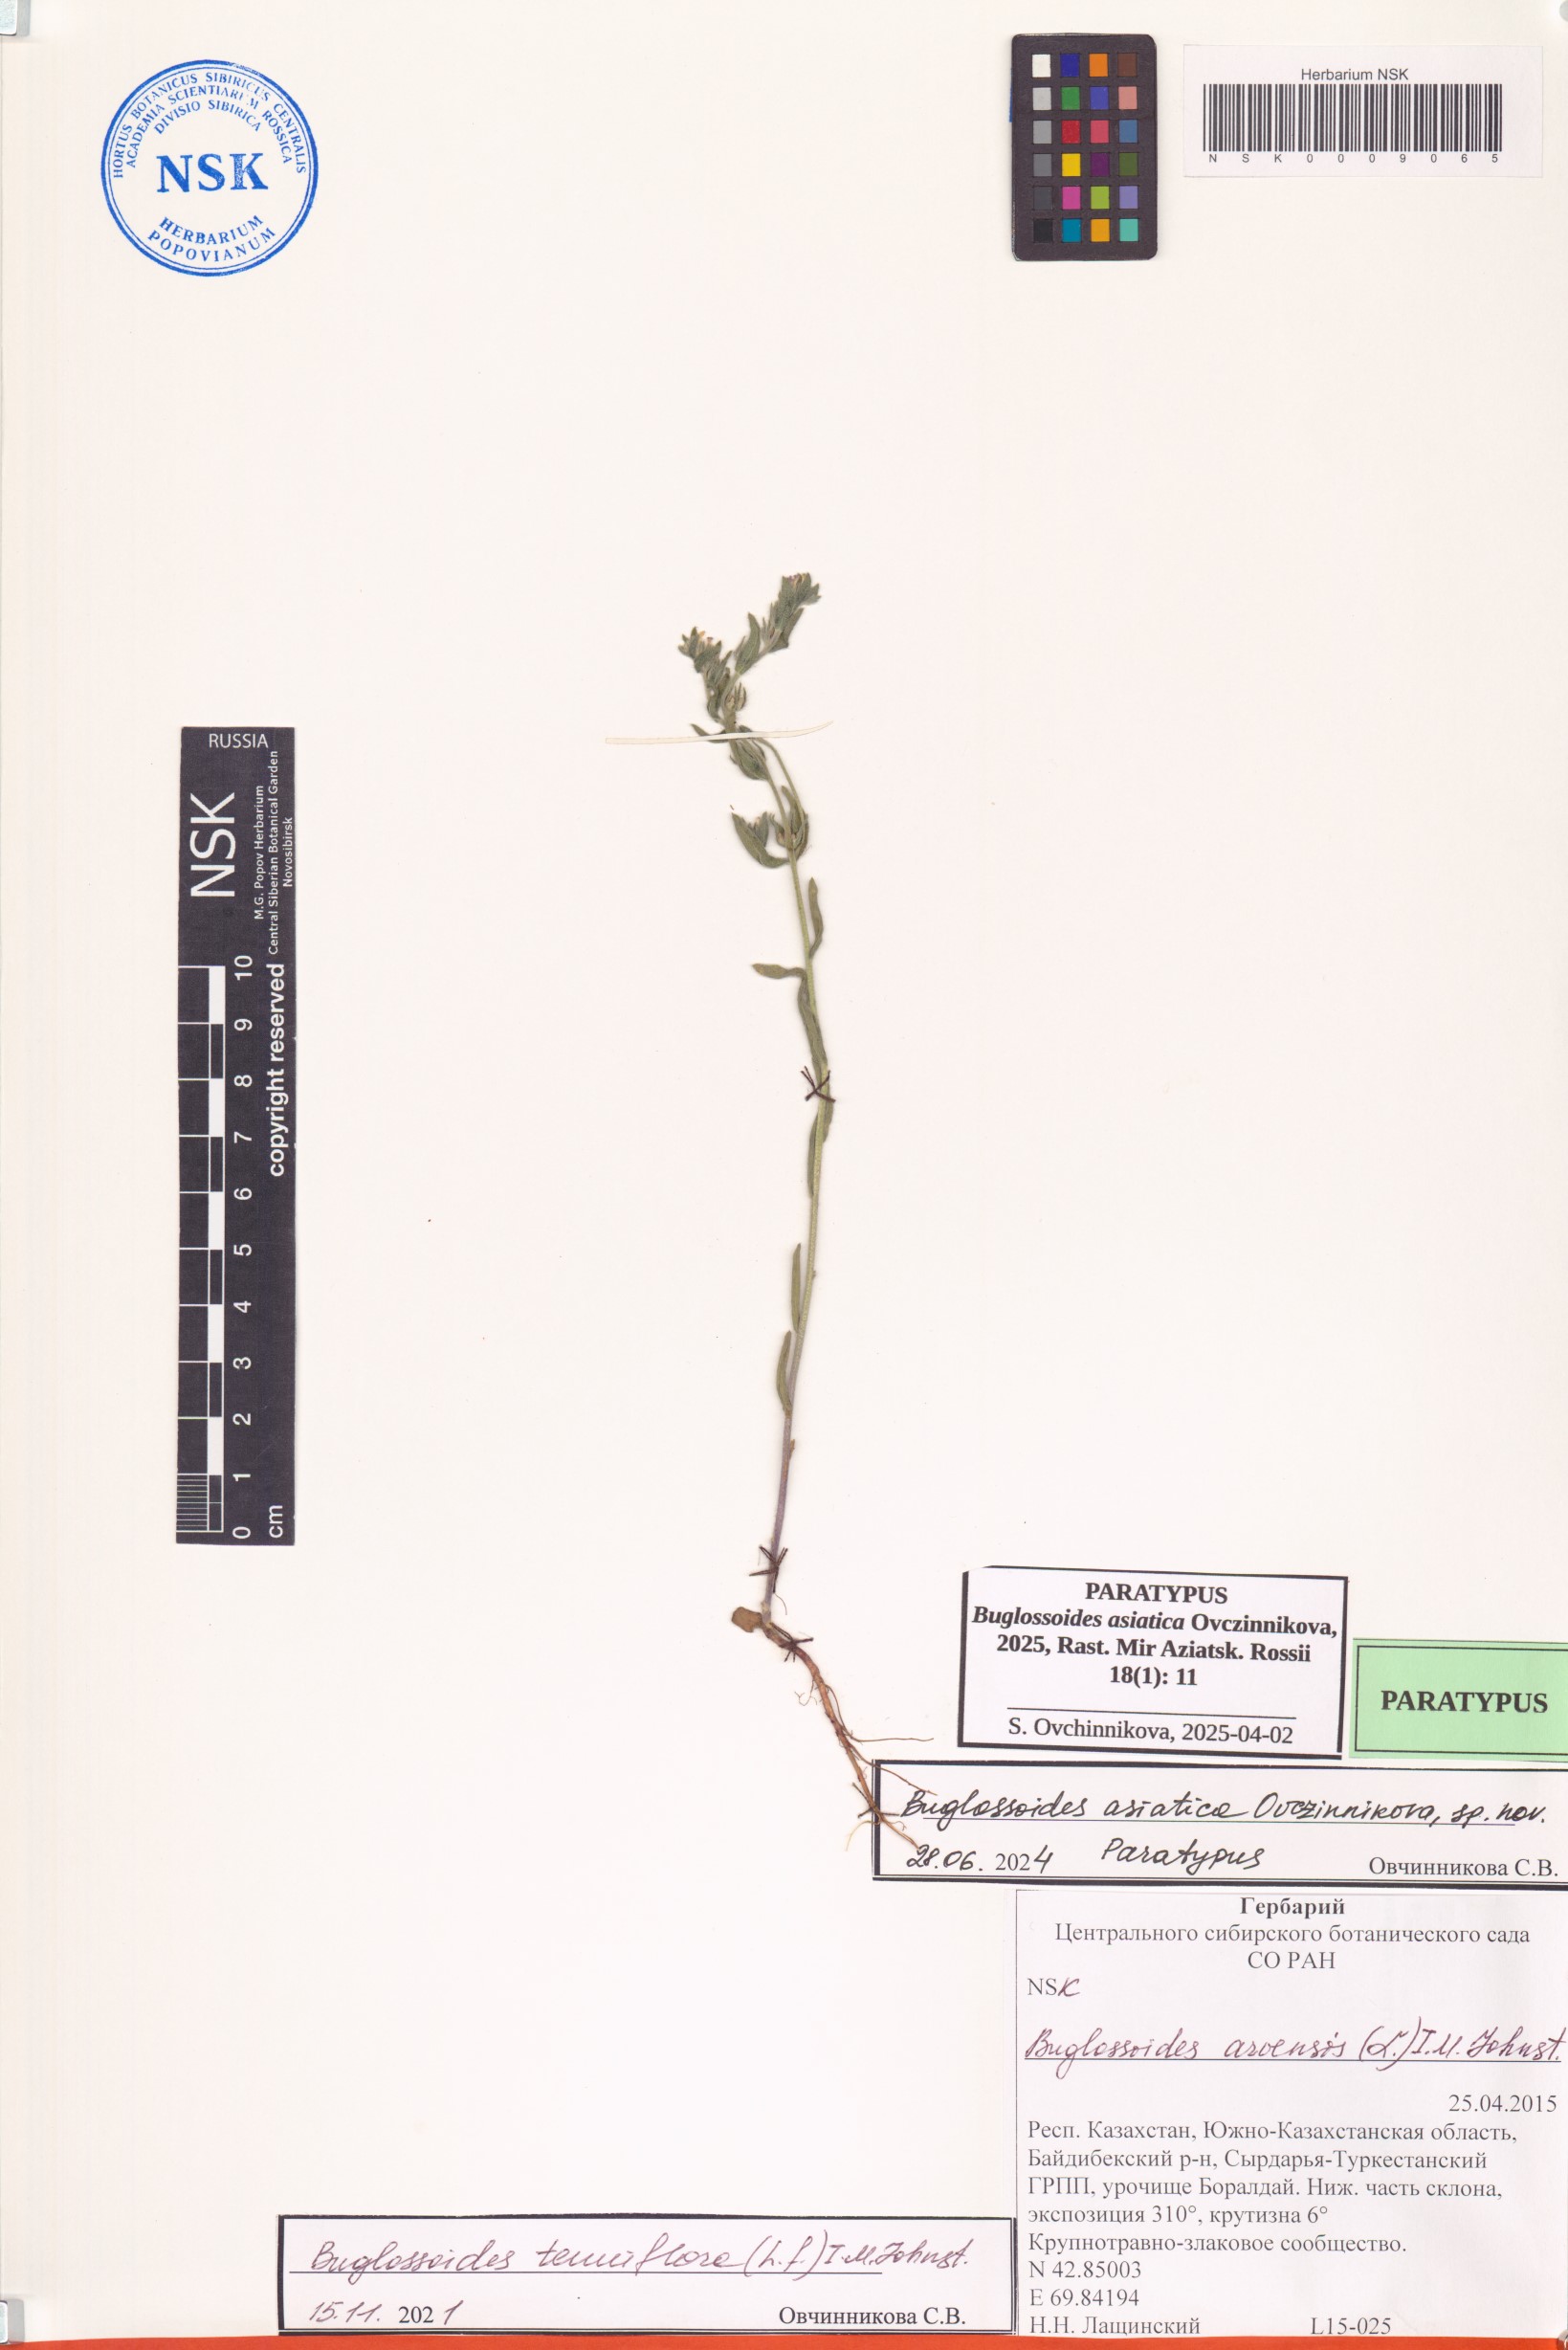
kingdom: Plantae
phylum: Tracheophyta
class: Magnoliopsida
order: Boraginales
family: Boraginaceae
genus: Buglossoides
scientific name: Buglossoides arvensis
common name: Corn gromwell
